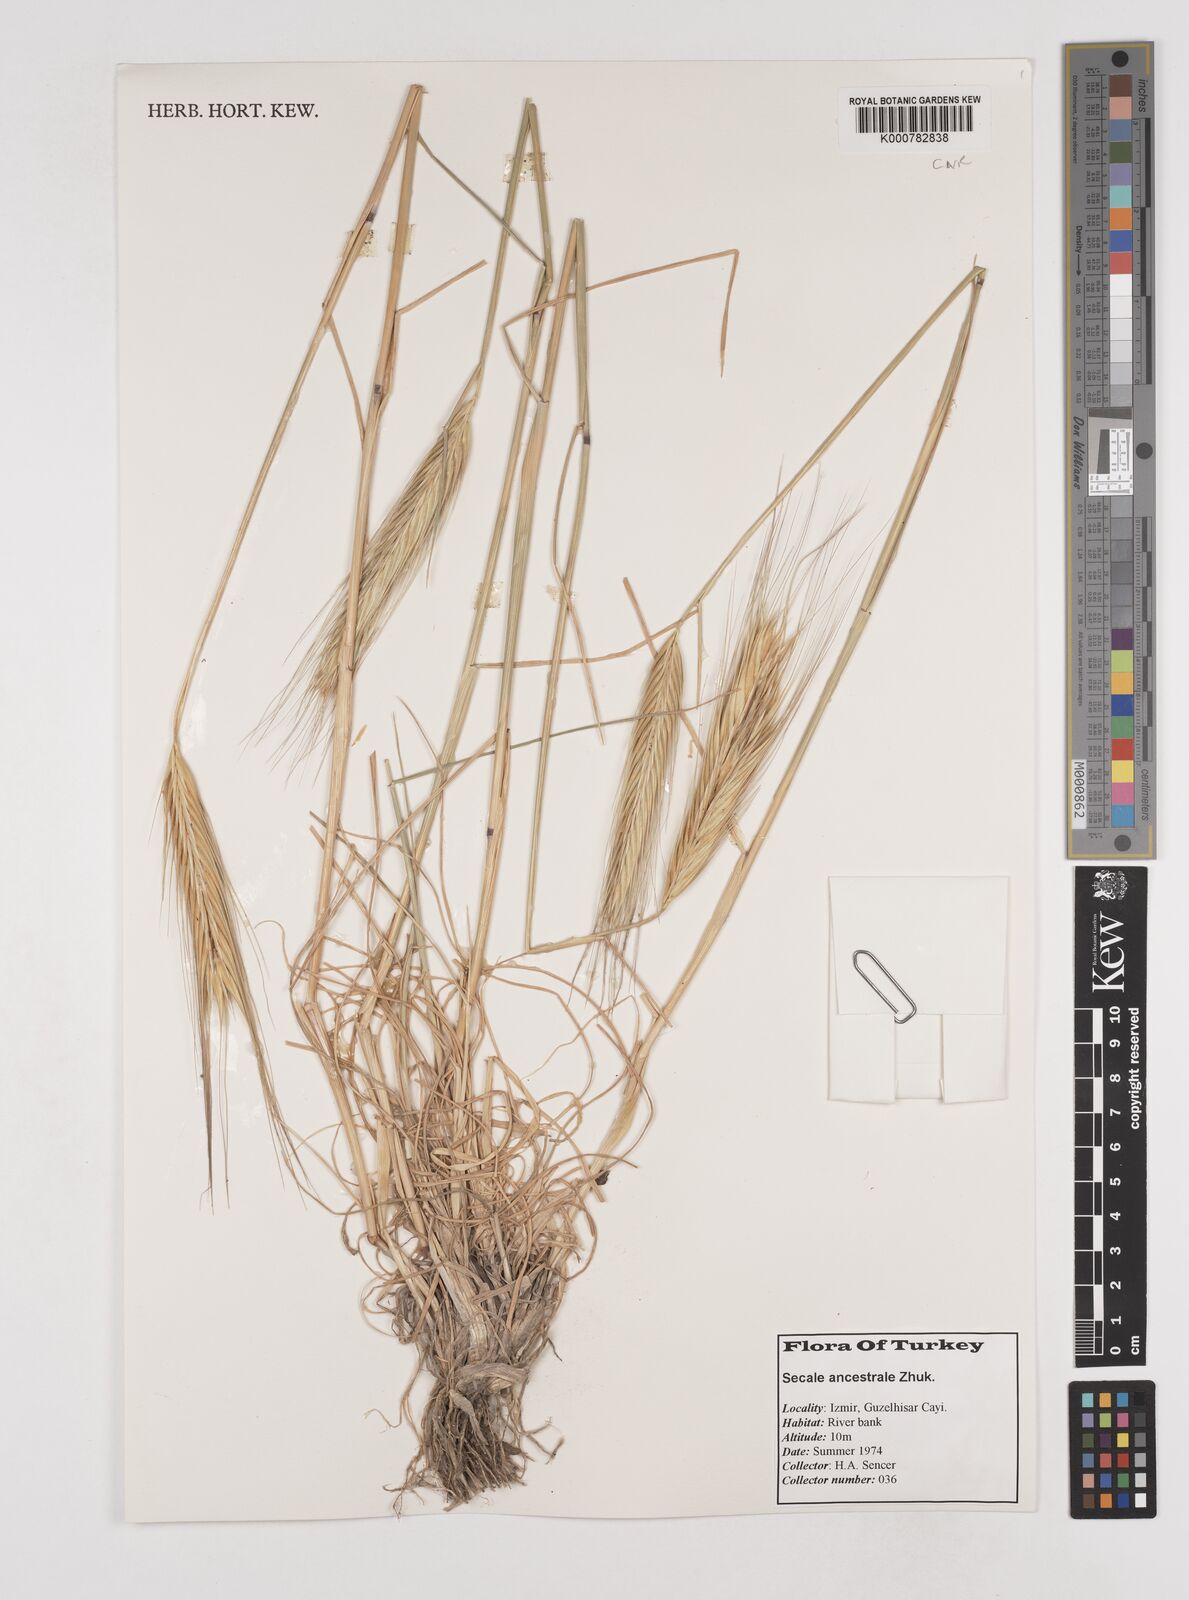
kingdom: Plantae
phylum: Tracheophyta
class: Liliopsida
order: Poales
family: Poaceae
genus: Secale
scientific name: Secale cereale
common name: Rye
